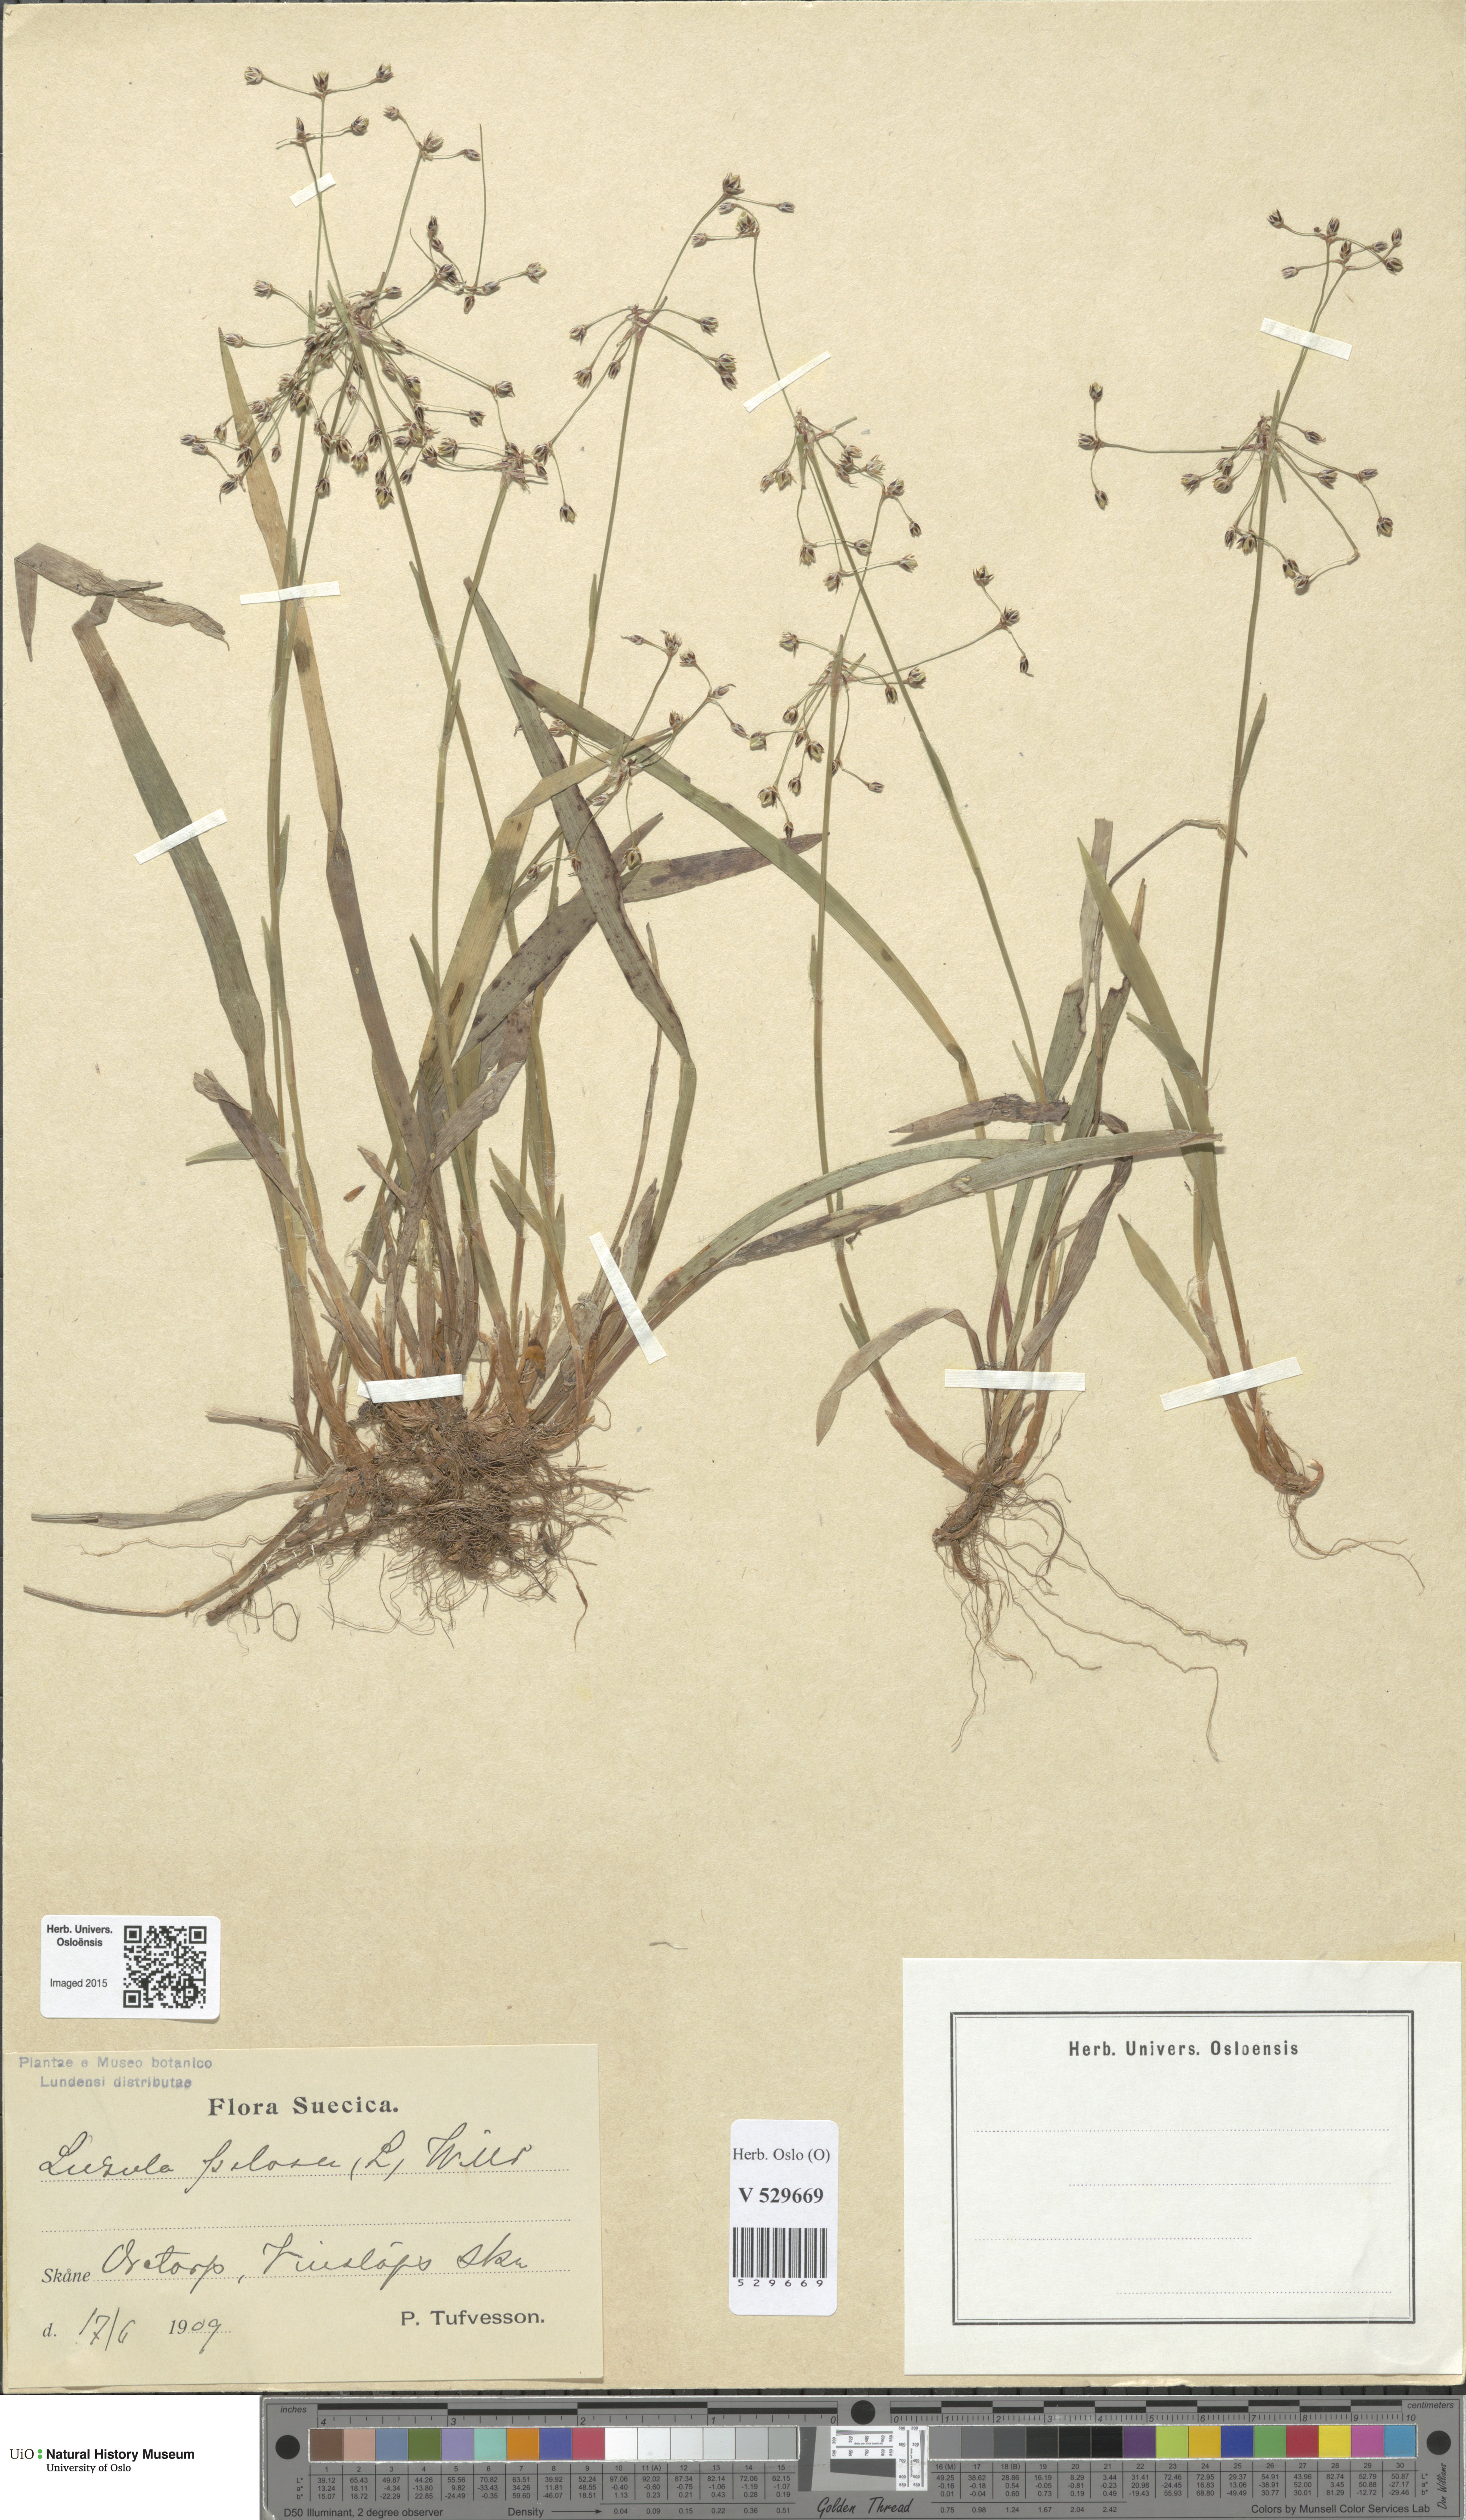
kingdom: Plantae
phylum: Tracheophyta
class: Liliopsida
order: Poales
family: Juncaceae
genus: Luzula
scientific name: Luzula pilosa
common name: Hairy wood-rush
